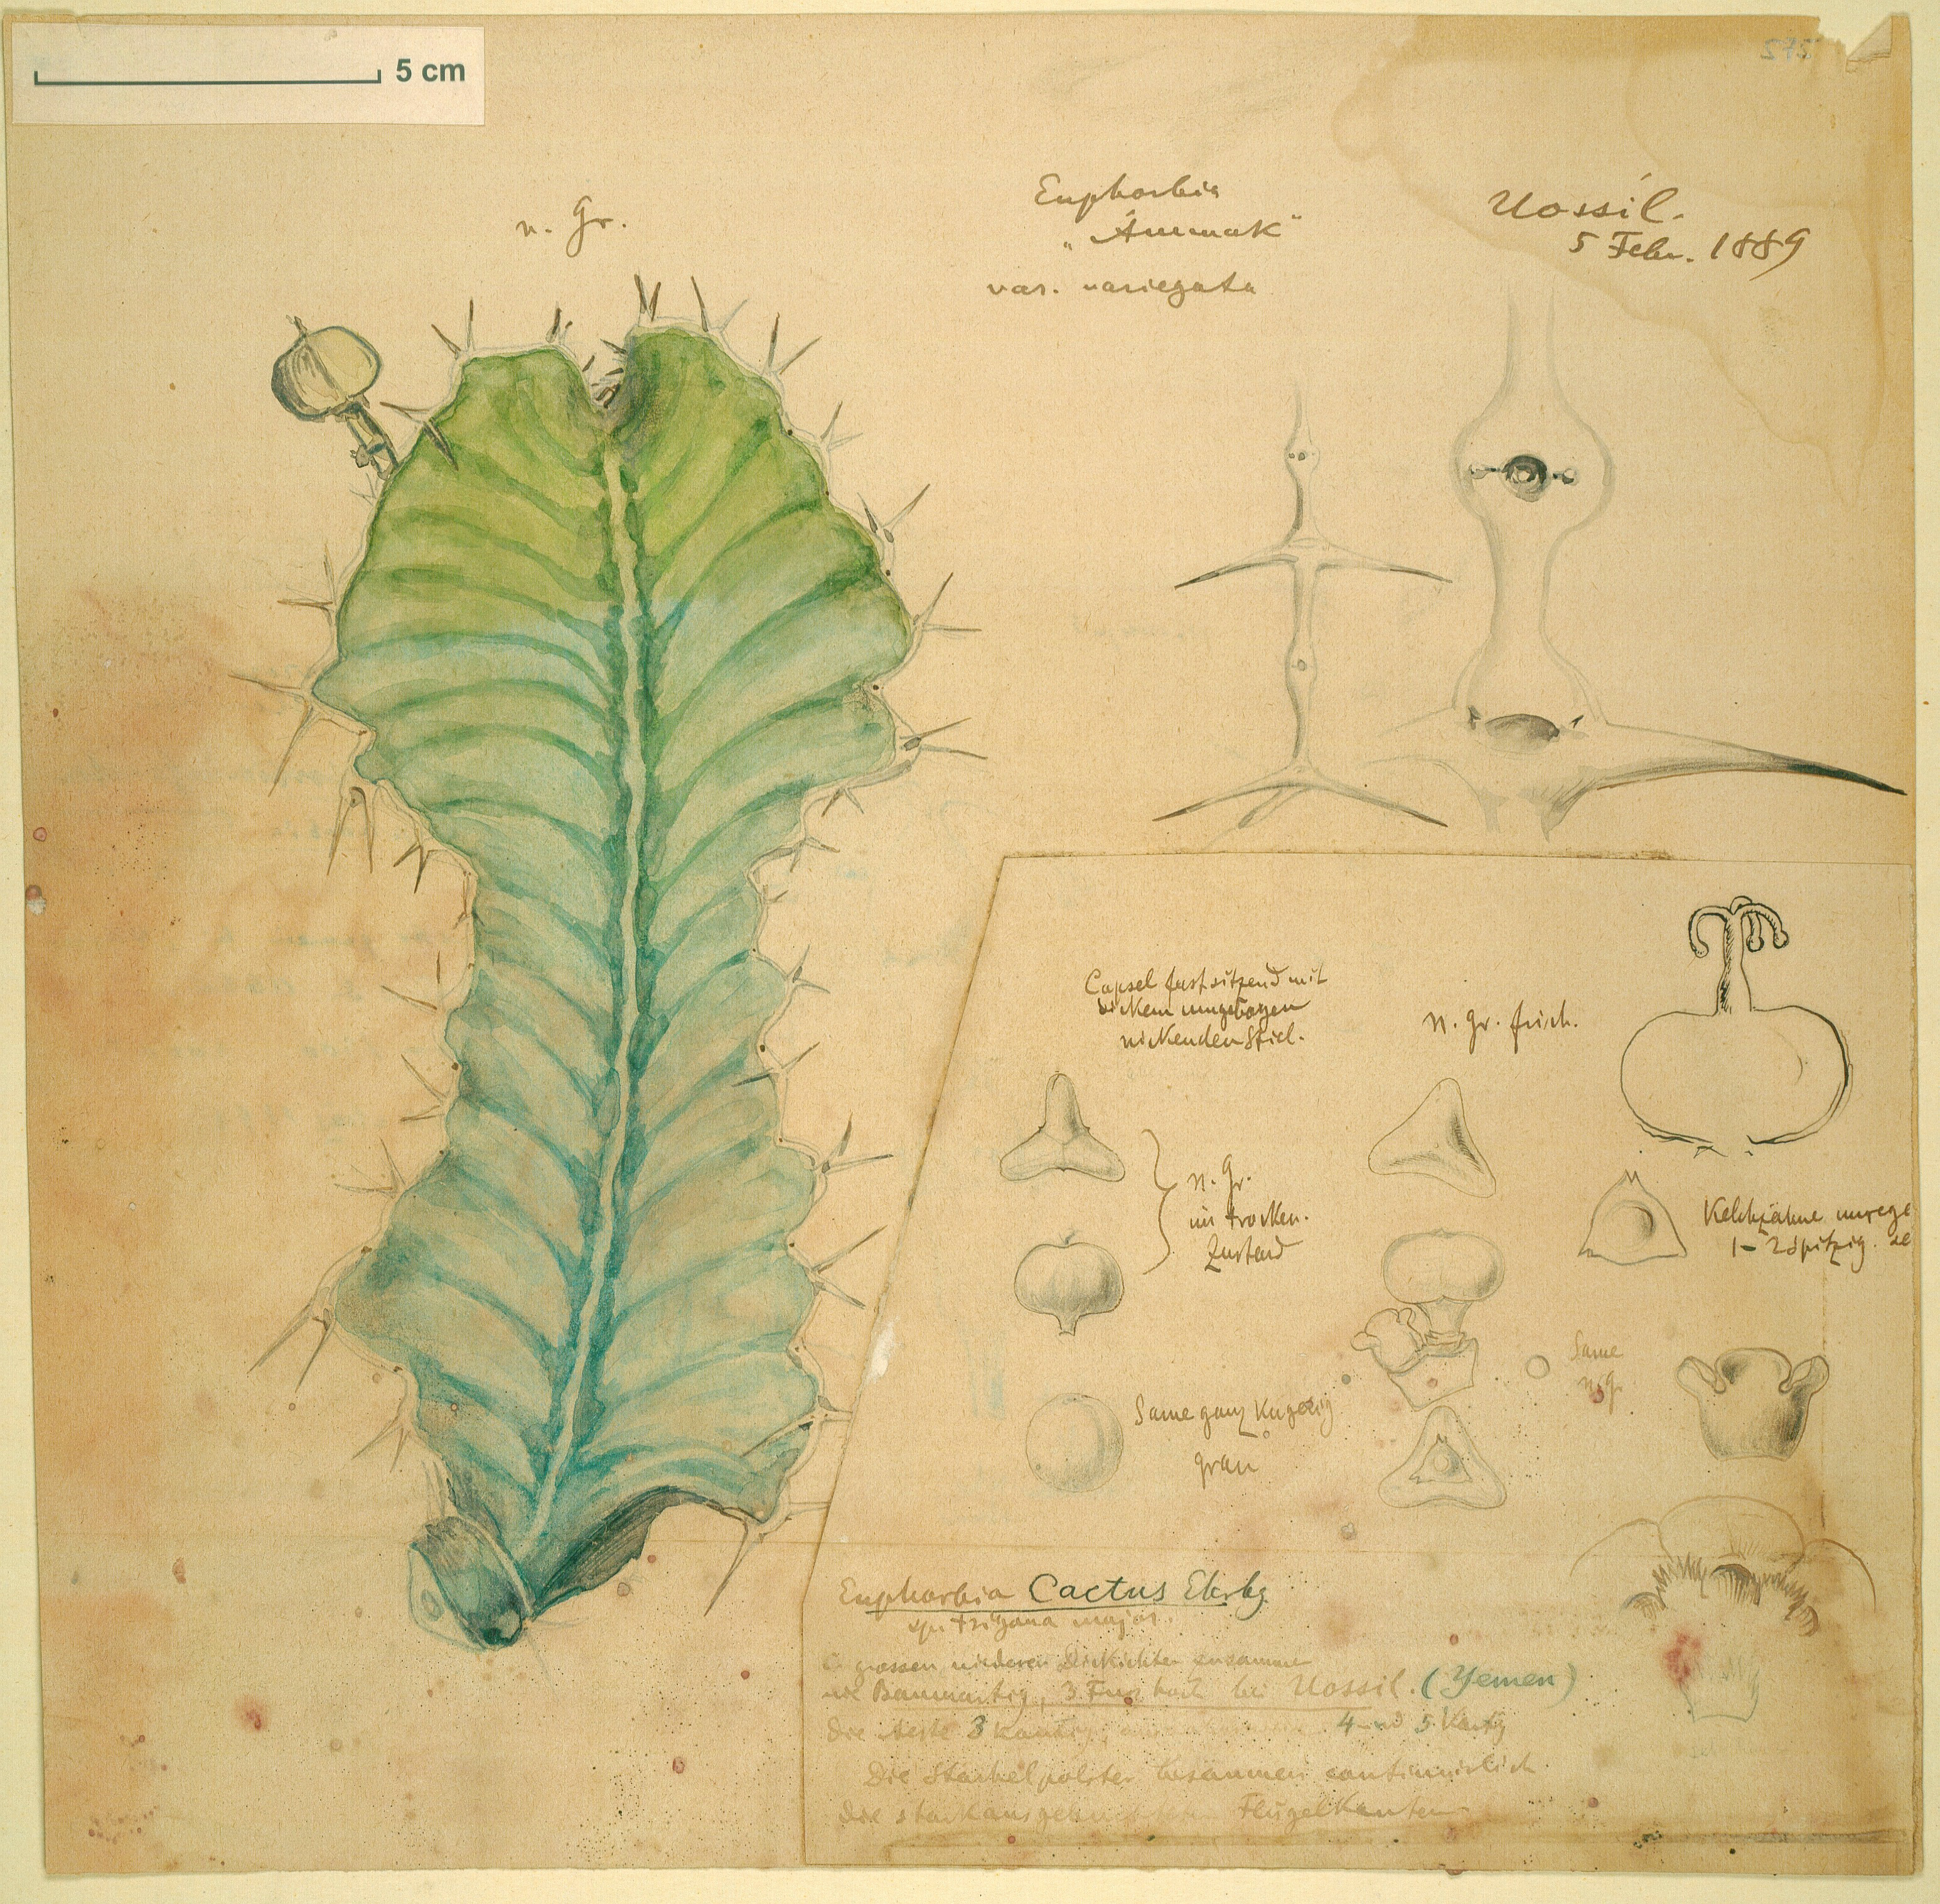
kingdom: Plantae
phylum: Tracheophyta
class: Magnoliopsida
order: Malpighiales
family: Euphorbiaceae
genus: Euphorbia
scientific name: Euphorbia cactus
